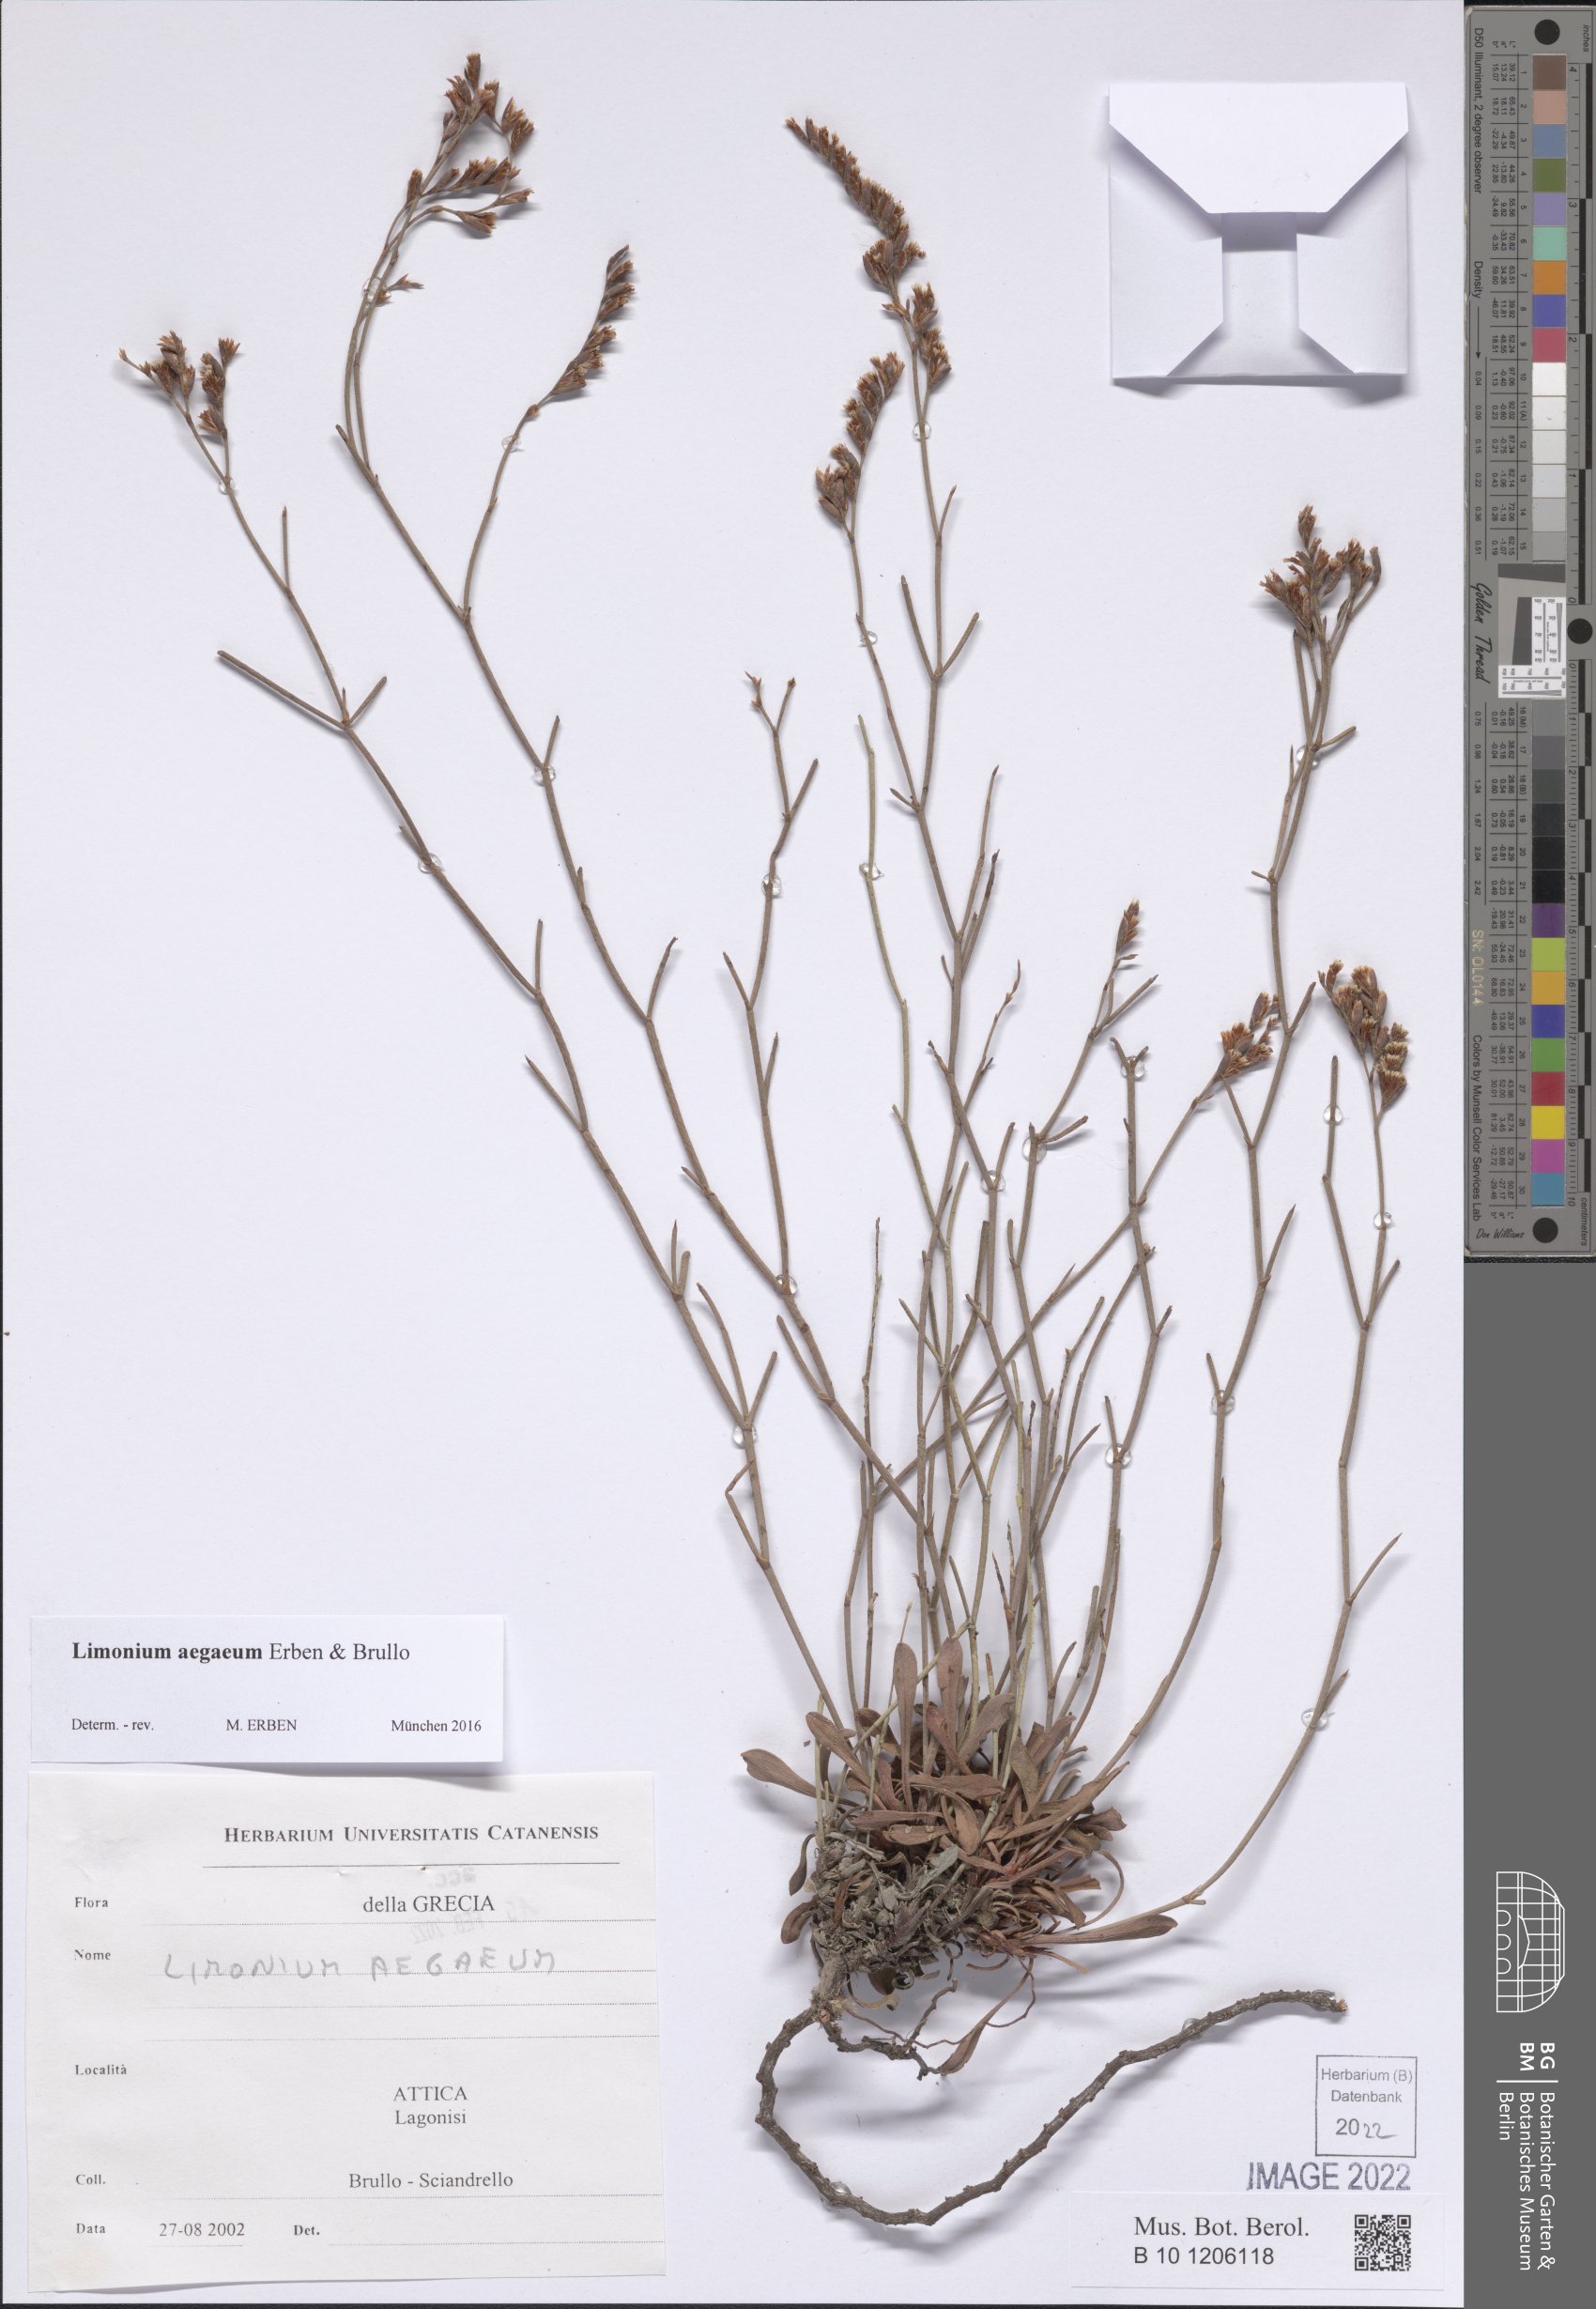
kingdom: Plantae
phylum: Tracheophyta
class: Magnoliopsida
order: Caryophyllales
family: Plumbaginaceae
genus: Limonium
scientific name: Limonium aegaeum
